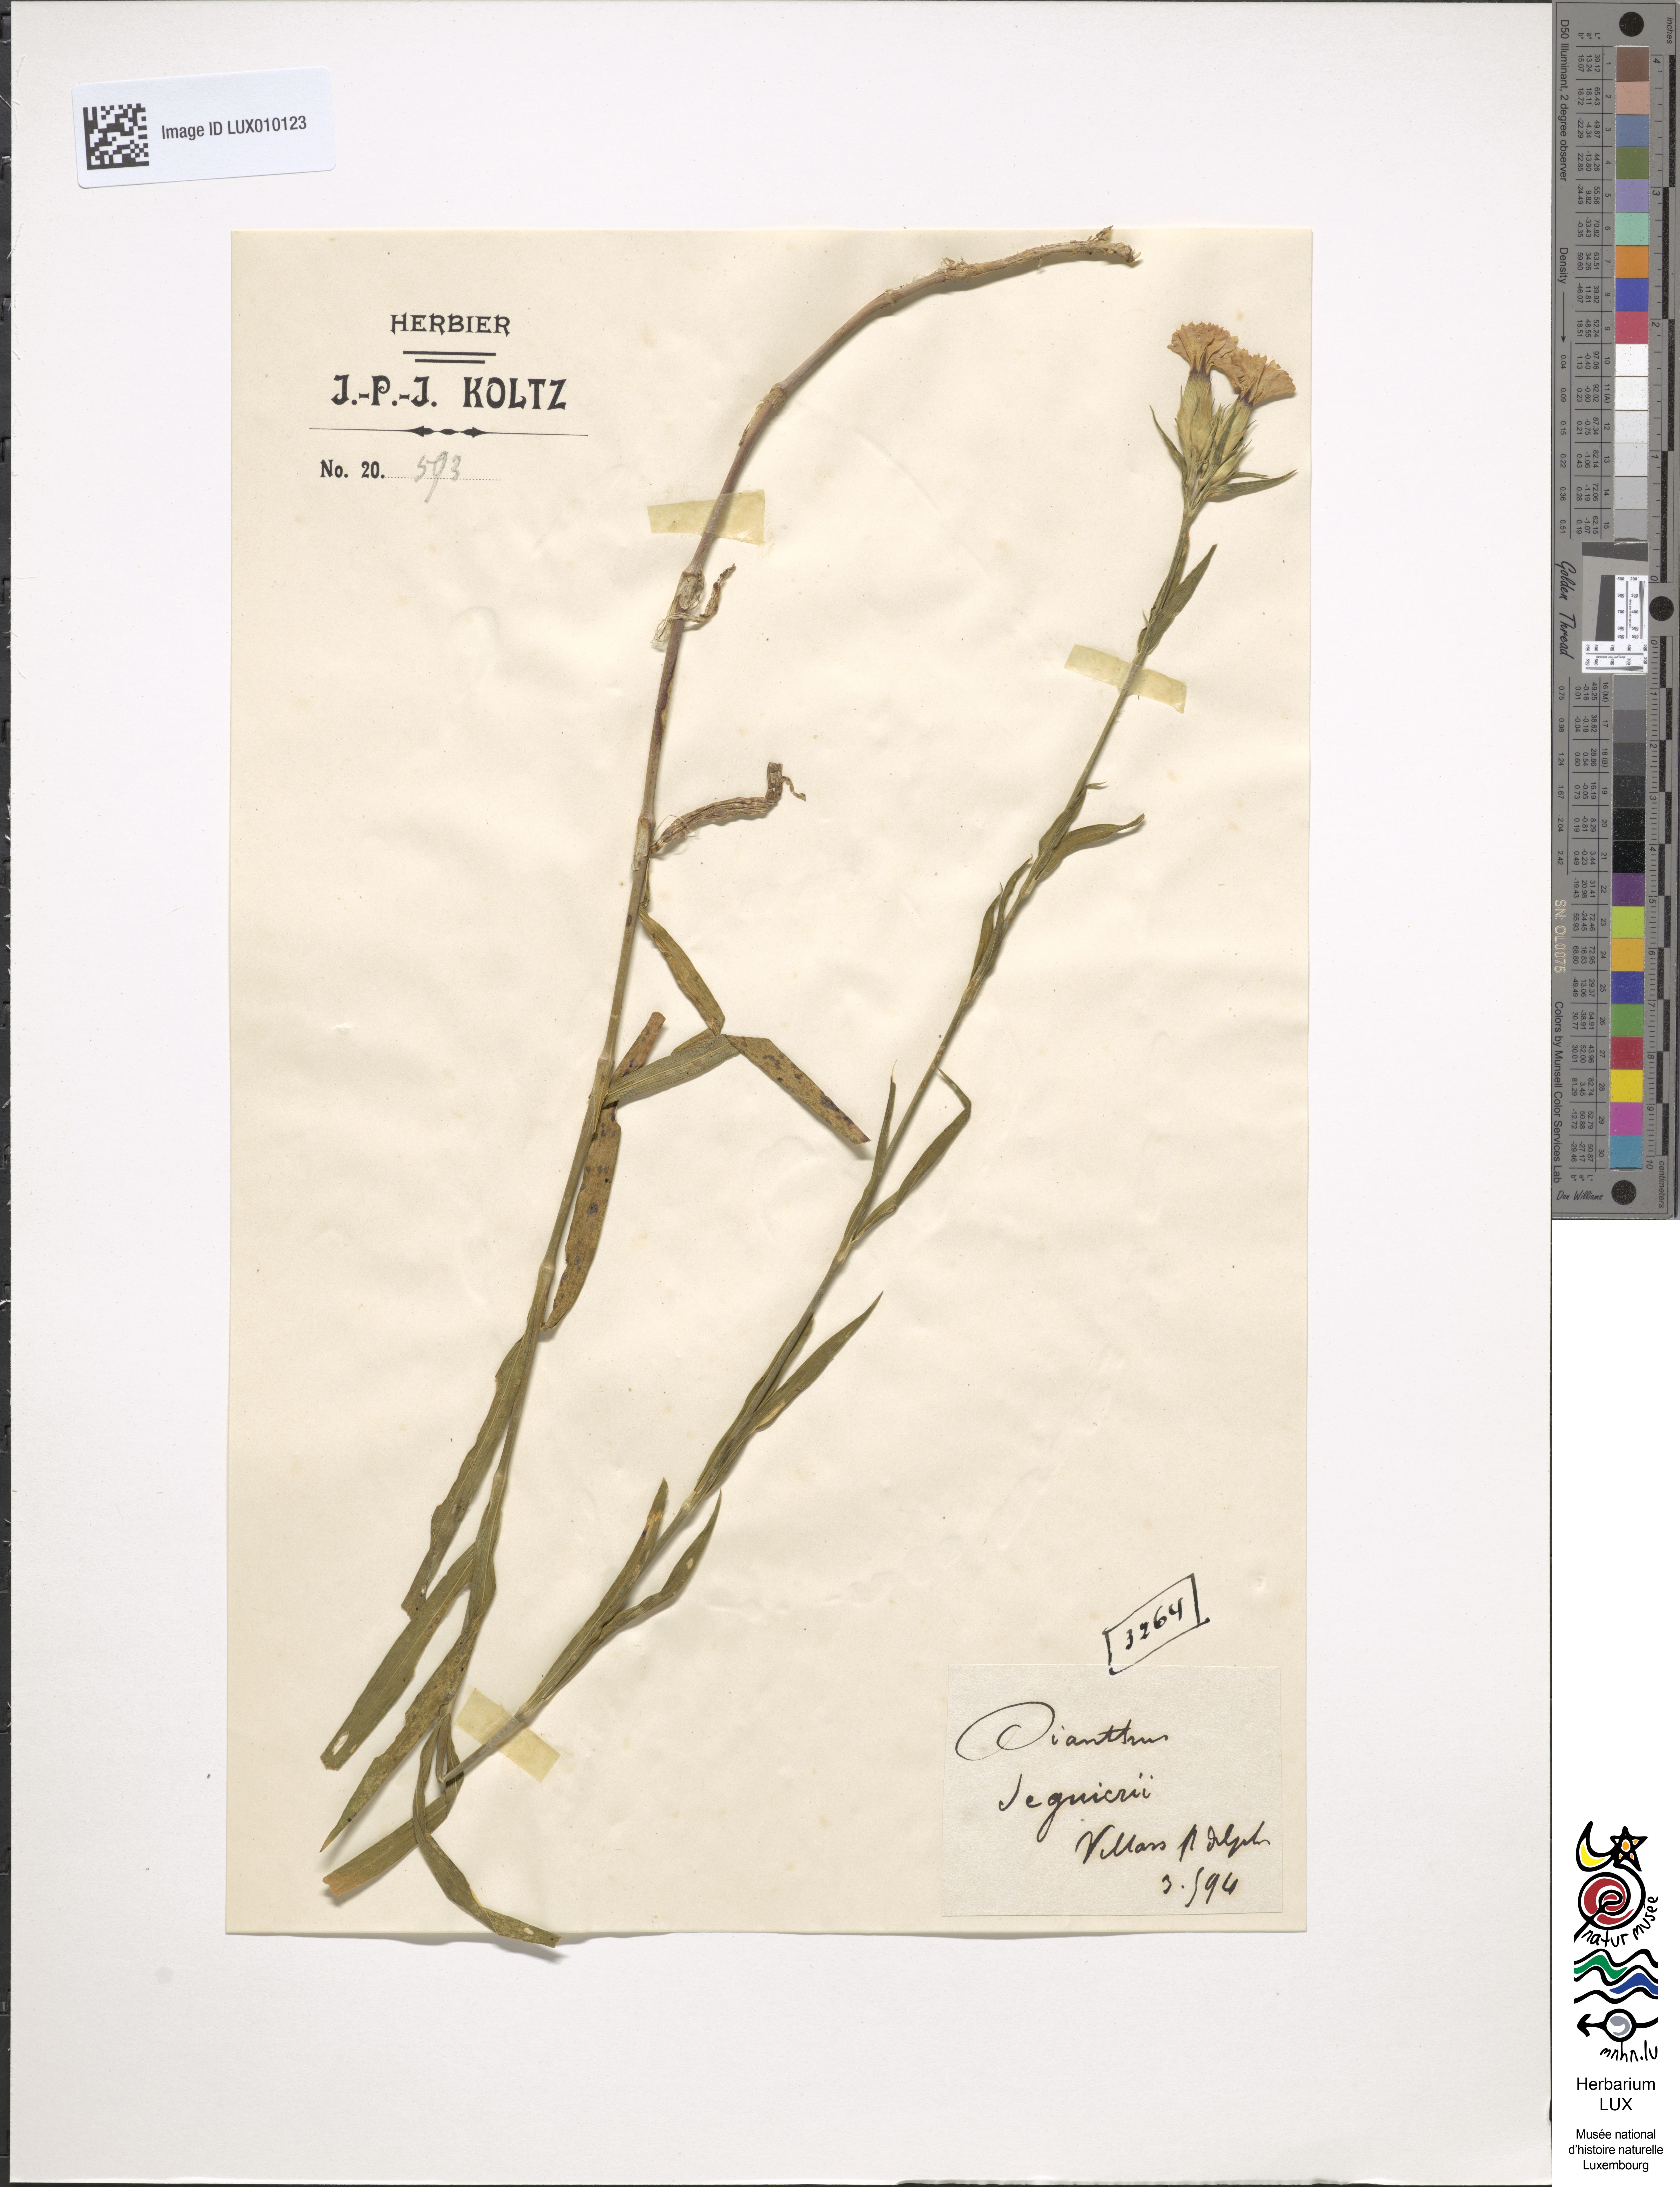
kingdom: Plantae
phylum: Tracheophyta
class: Magnoliopsida
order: Caryophyllales
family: Caryophyllaceae
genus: Dianthus
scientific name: Dianthus seguieri
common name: Ragged pink
